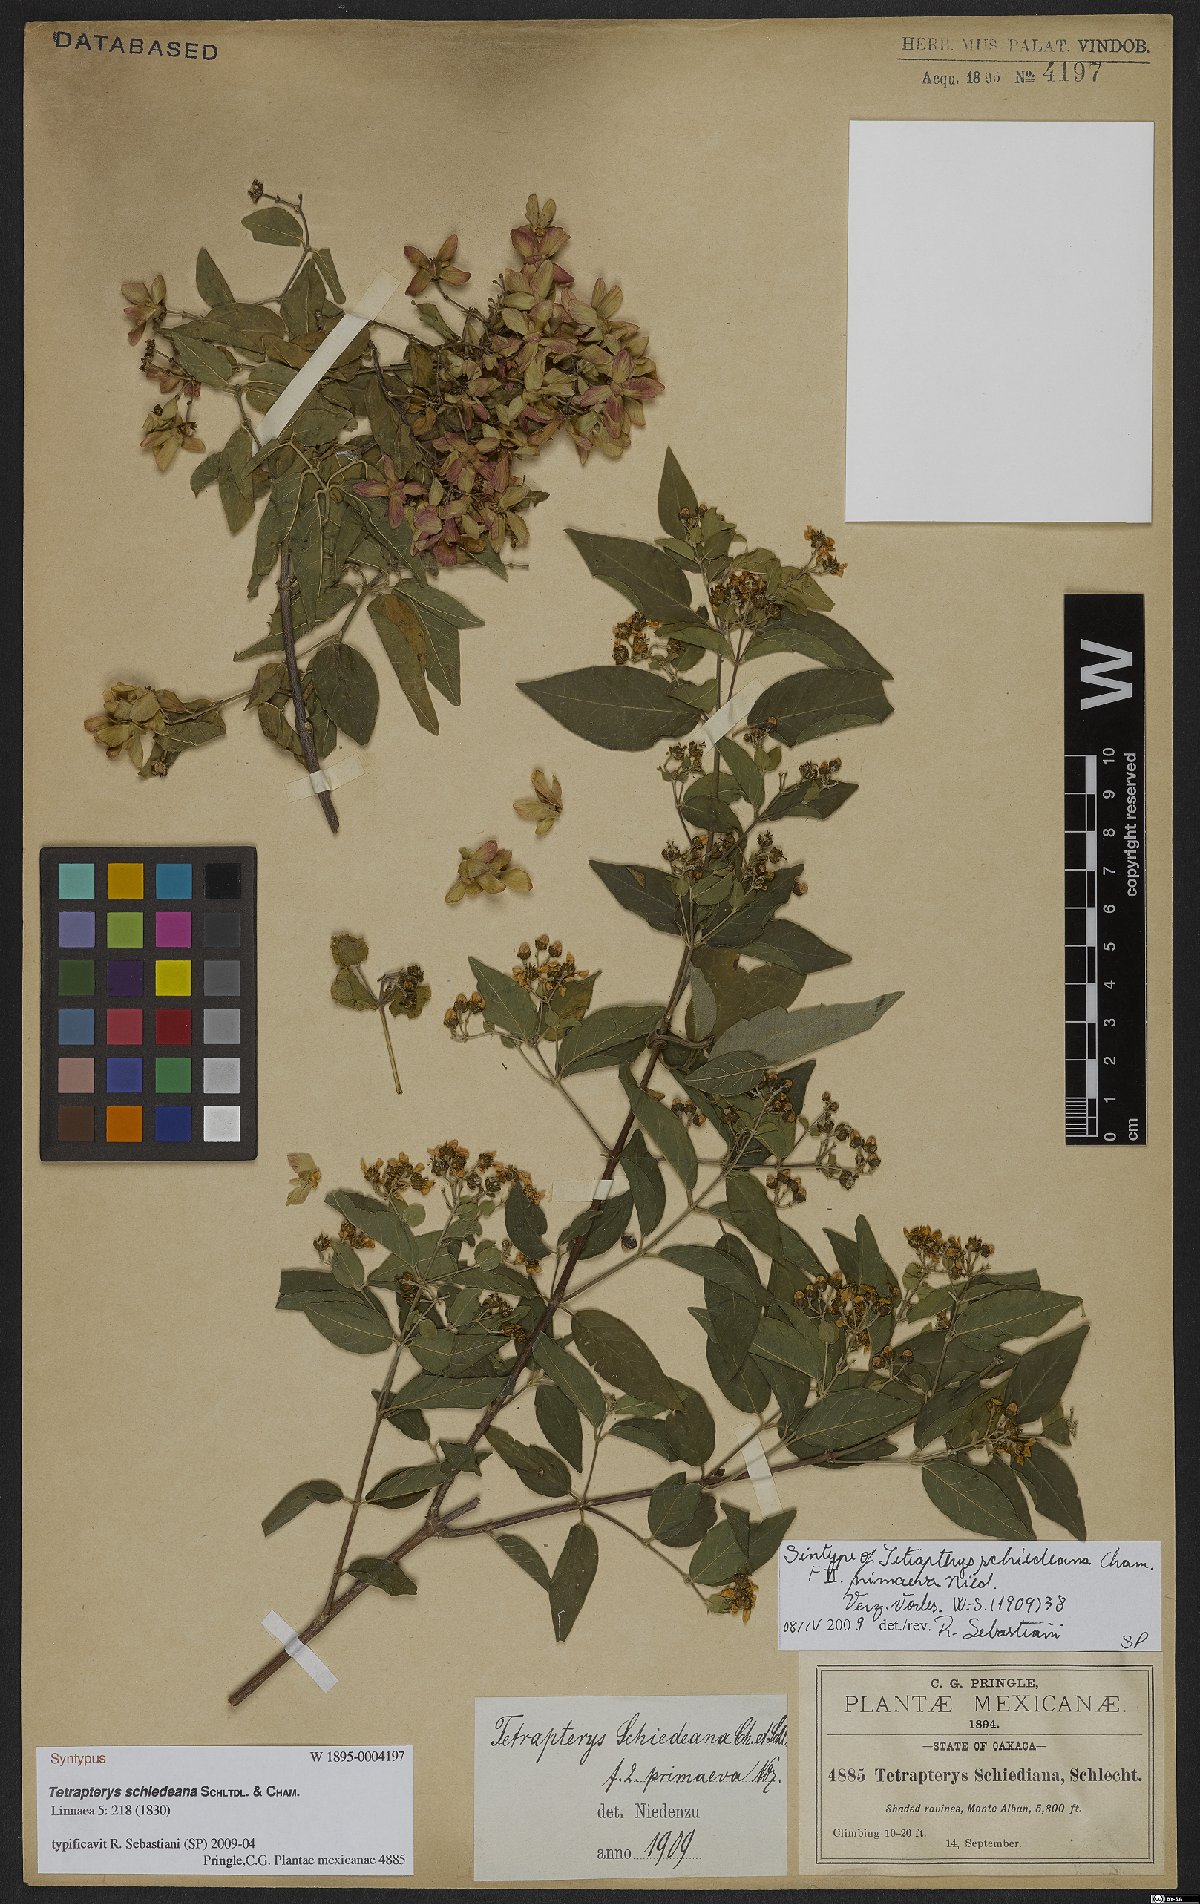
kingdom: Plantae
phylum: Tracheophyta
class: Magnoliopsida
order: Malpighiales
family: Malpighiaceae
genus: Tetrapterys
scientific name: Tetrapterys schiedeana
